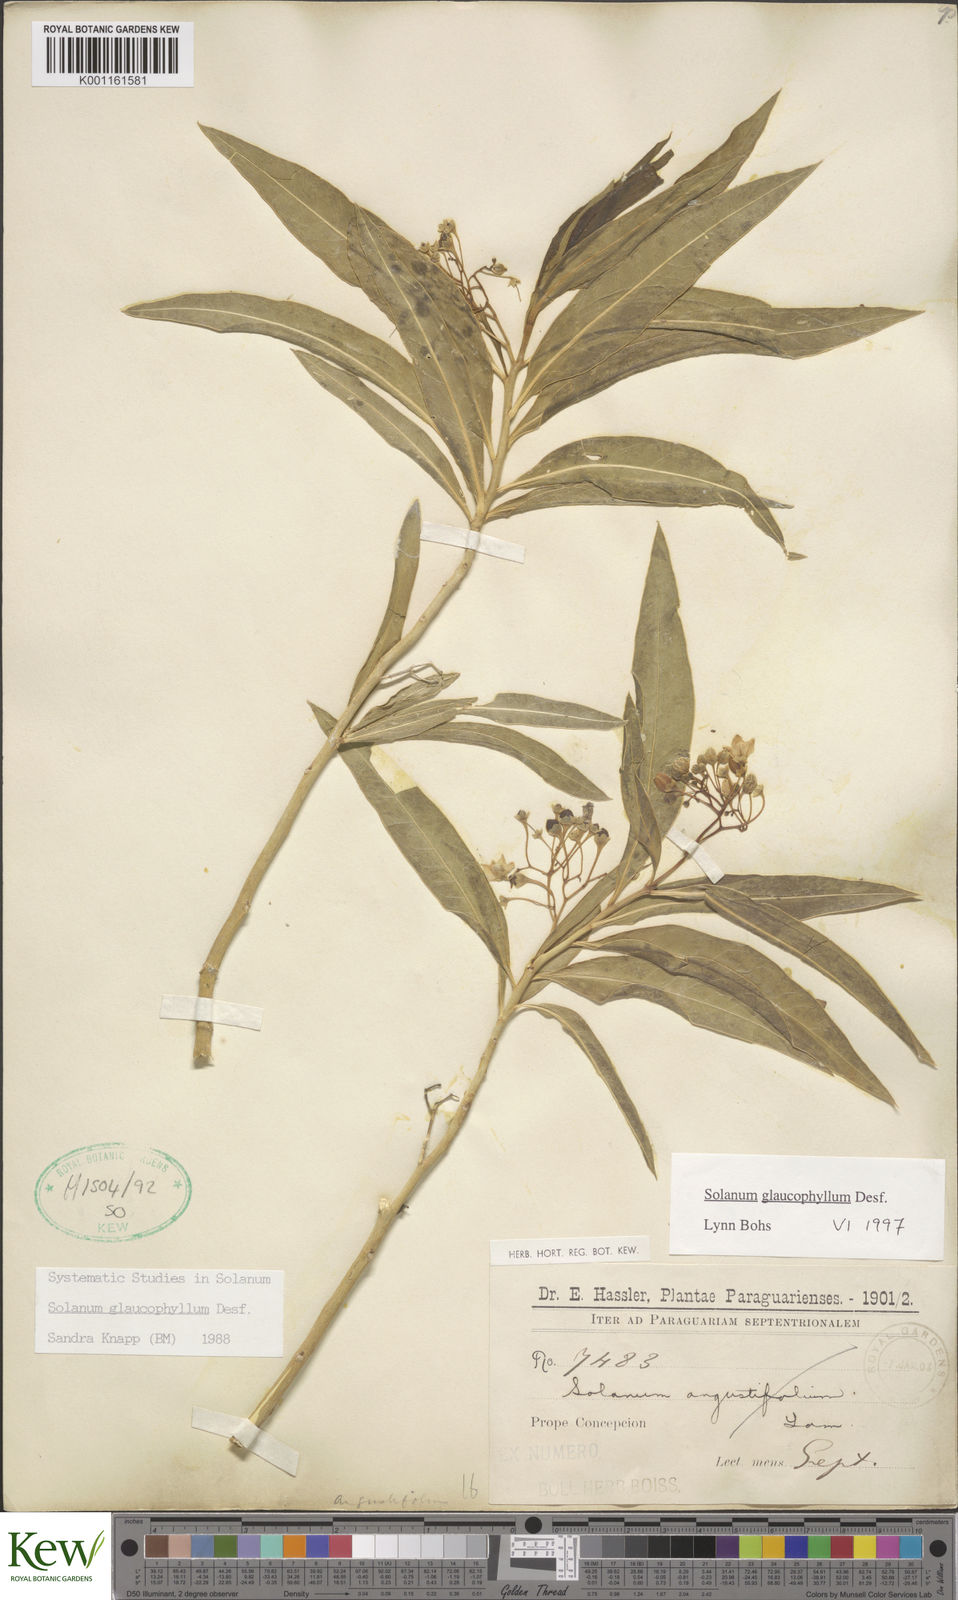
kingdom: Plantae
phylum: Tracheophyta
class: Magnoliopsida
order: Solanales
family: Solanaceae
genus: Solanum
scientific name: Solanum glaucophyllum
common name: Waxyleaf nightshade
